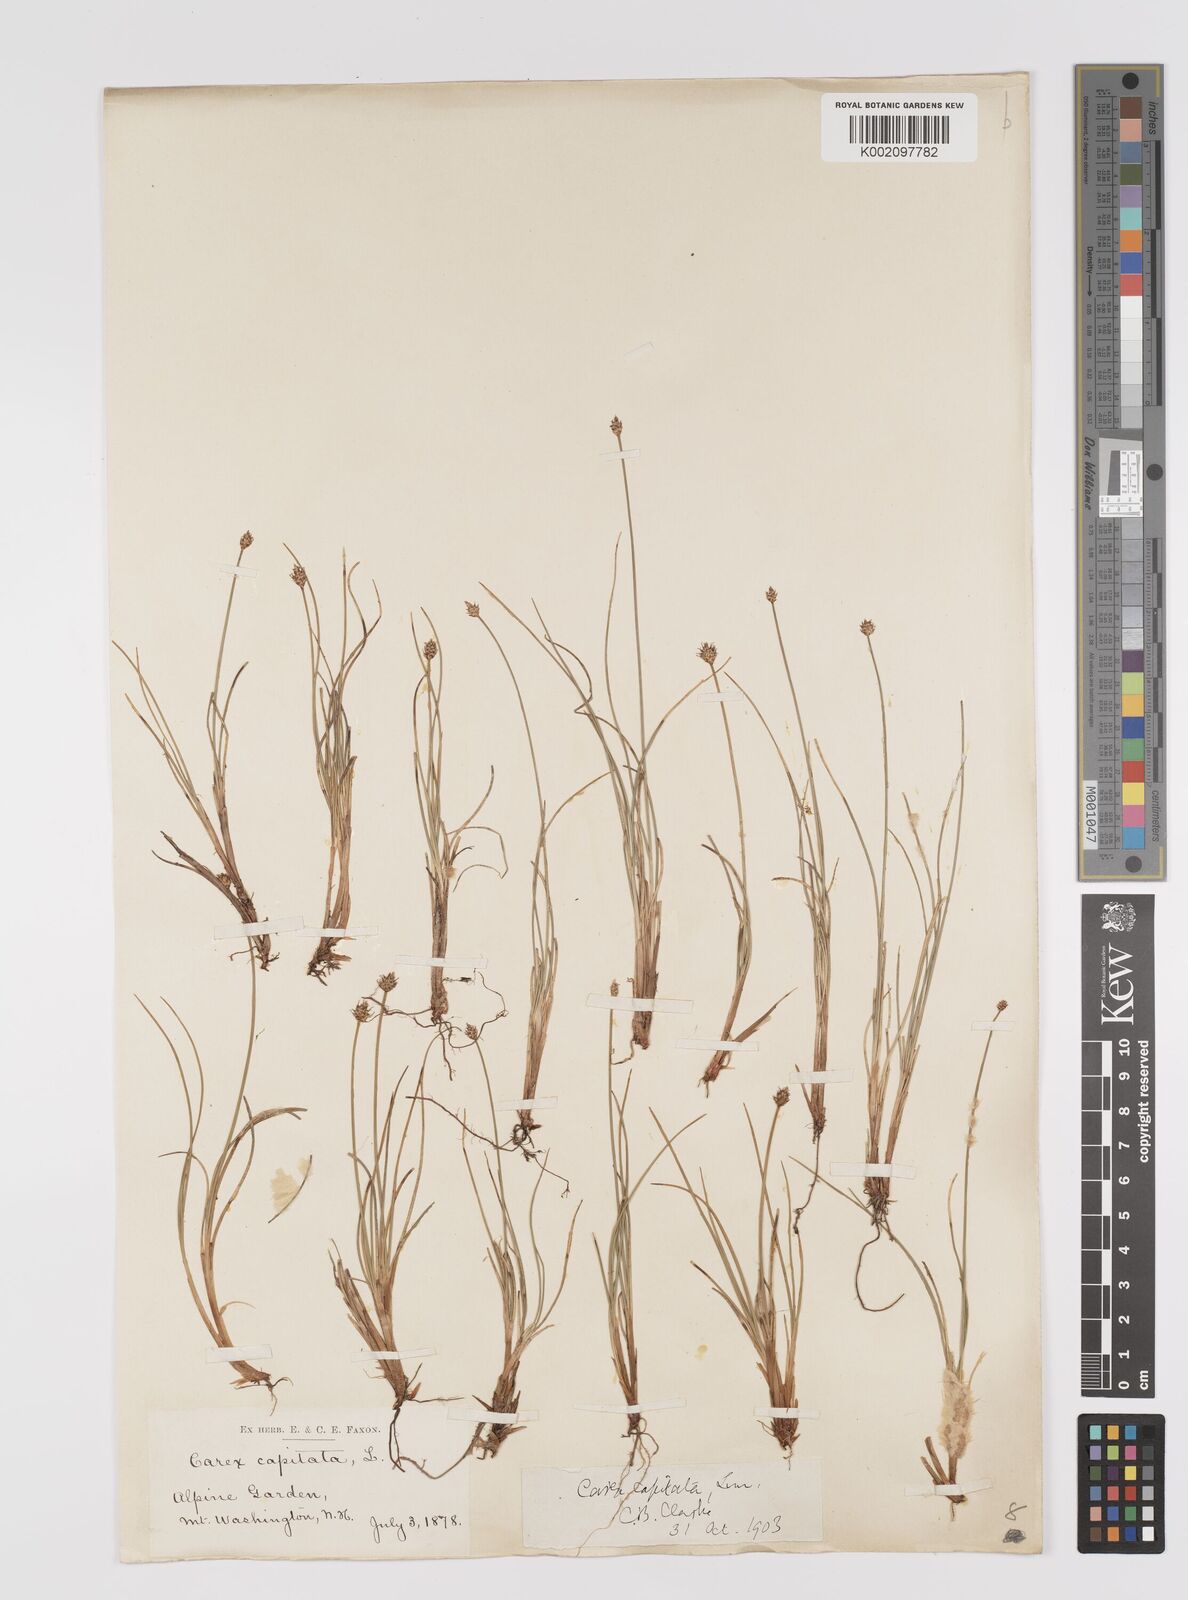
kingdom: Plantae
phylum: Tracheophyta
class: Liliopsida
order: Poales
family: Cyperaceae
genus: Carex
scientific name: Carex capitata
